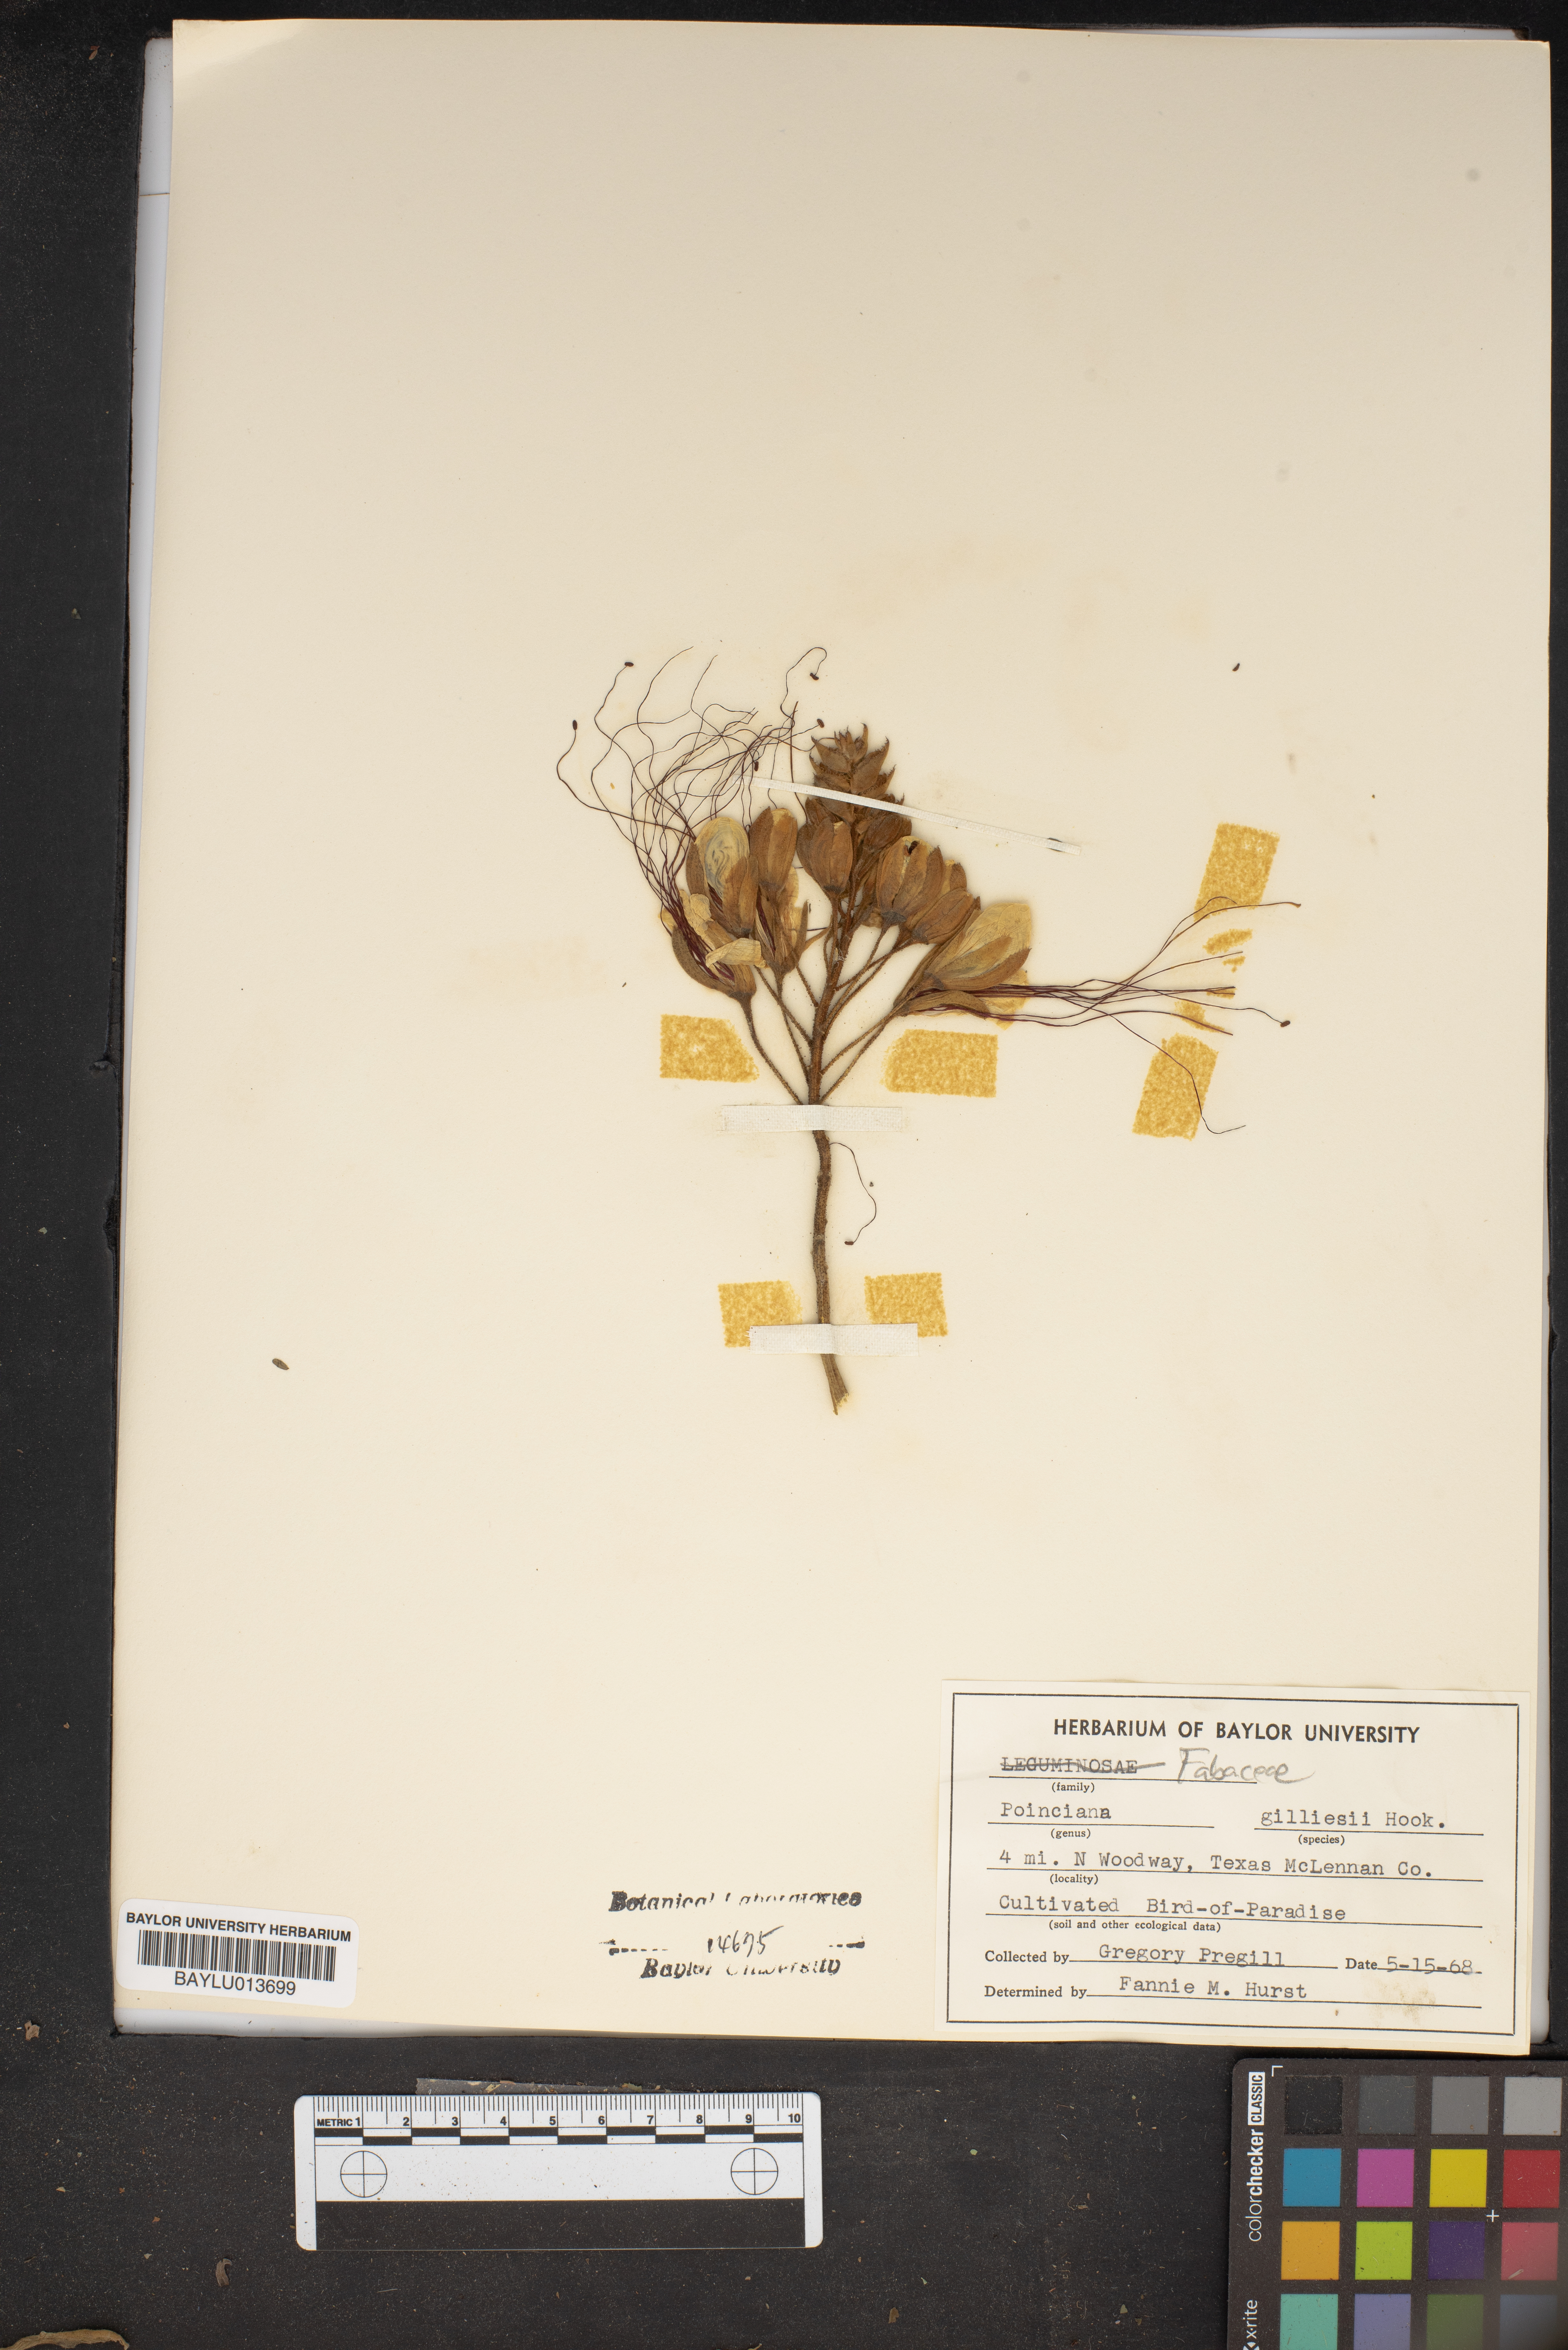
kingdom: Plantae
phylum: Tracheophyta
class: Magnoliopsida
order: Fabales
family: Fabaceae
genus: Erythrostemon
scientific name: Erythrostemon gilliesii
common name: Bird-of-paradise shrub
